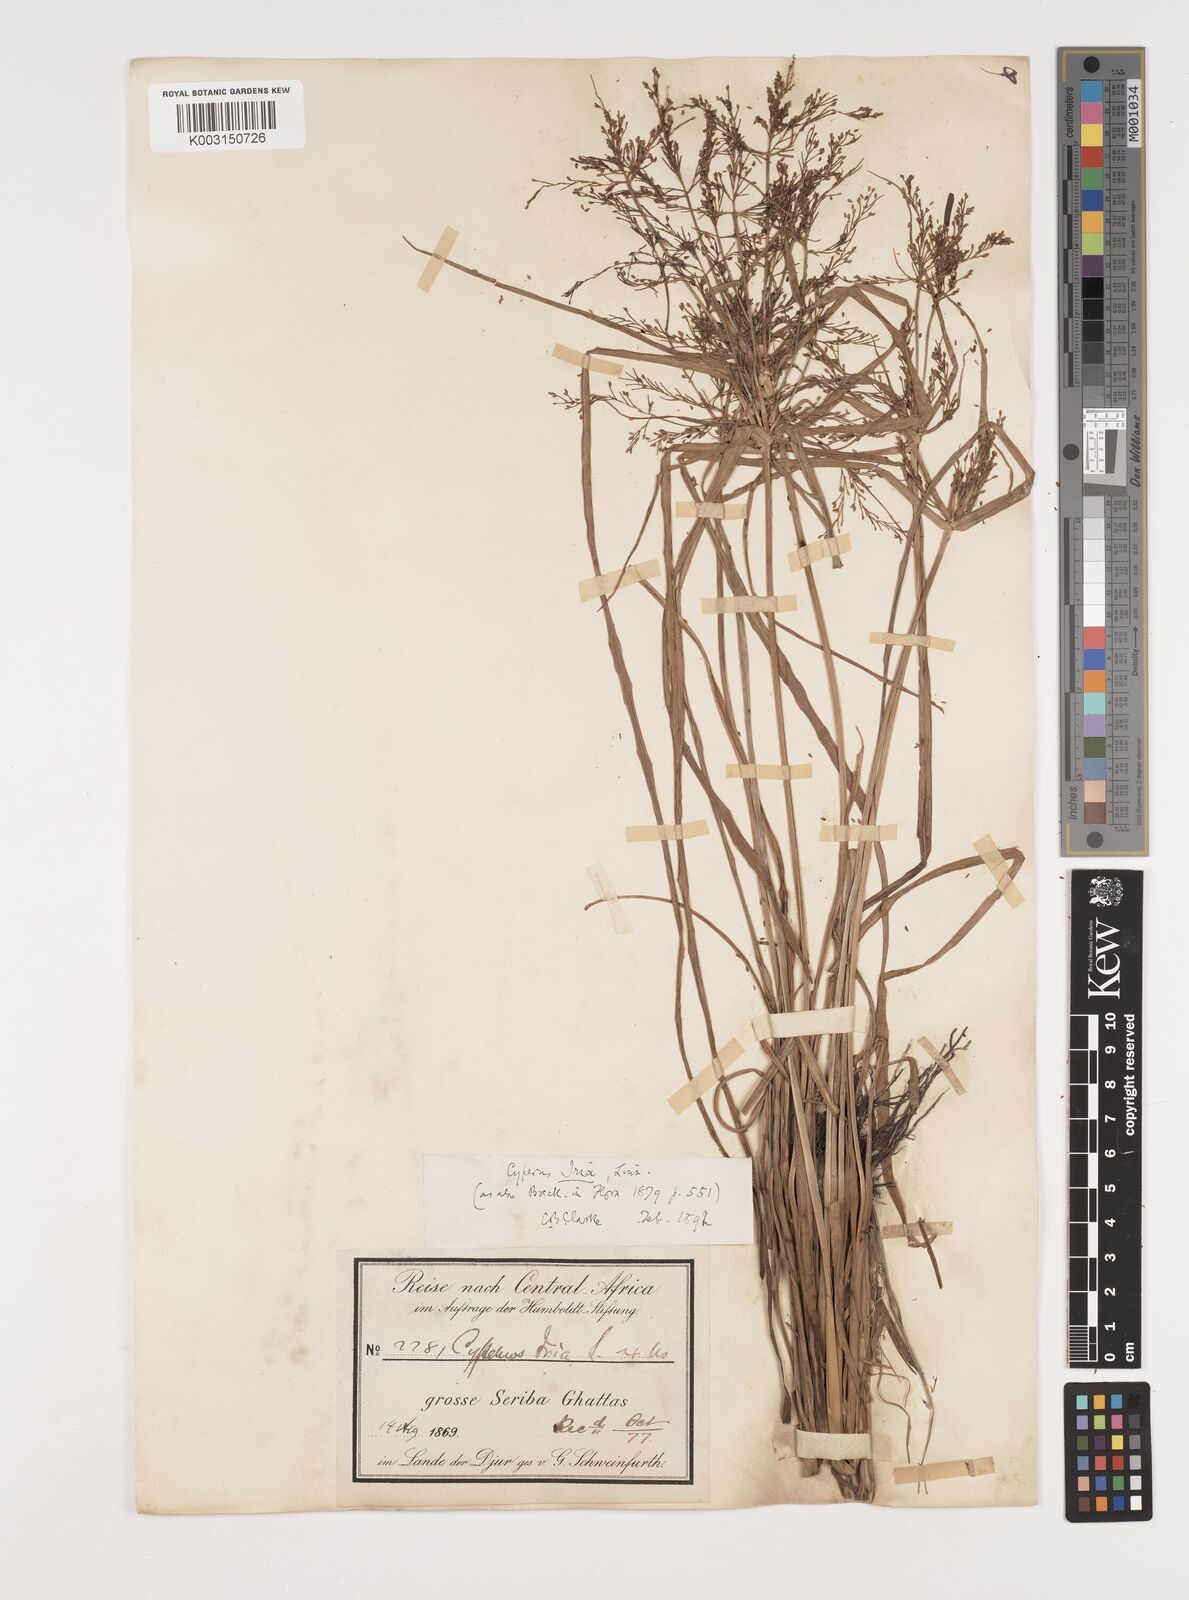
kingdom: Plantae
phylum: Tracheophyta
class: Liliopsida
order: Poales
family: Cyperaceae
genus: Cyperus
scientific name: Cyperus iria
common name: Ricefield flatsedge
